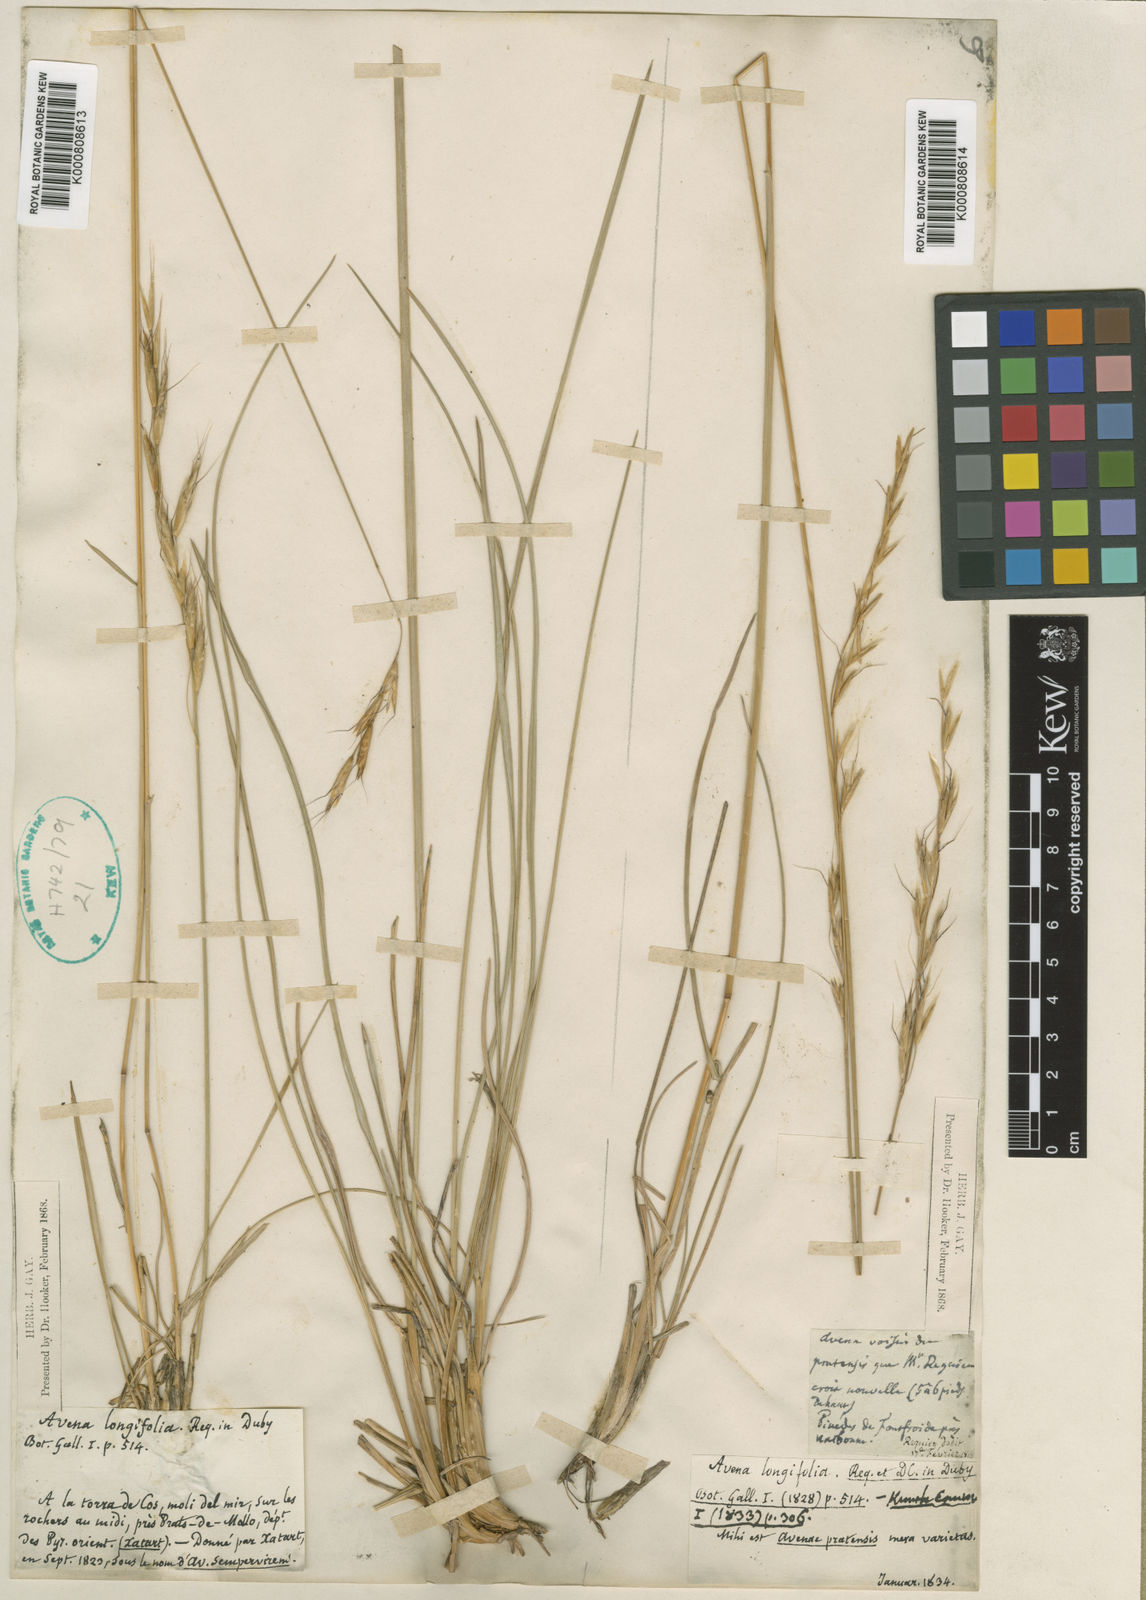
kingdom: Plantae
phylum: Tracheophyta
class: Liliopsida
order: Poales
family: Poaceae
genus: Helictochloa
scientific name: Helictochloa pratensis
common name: Meadow oat grass
